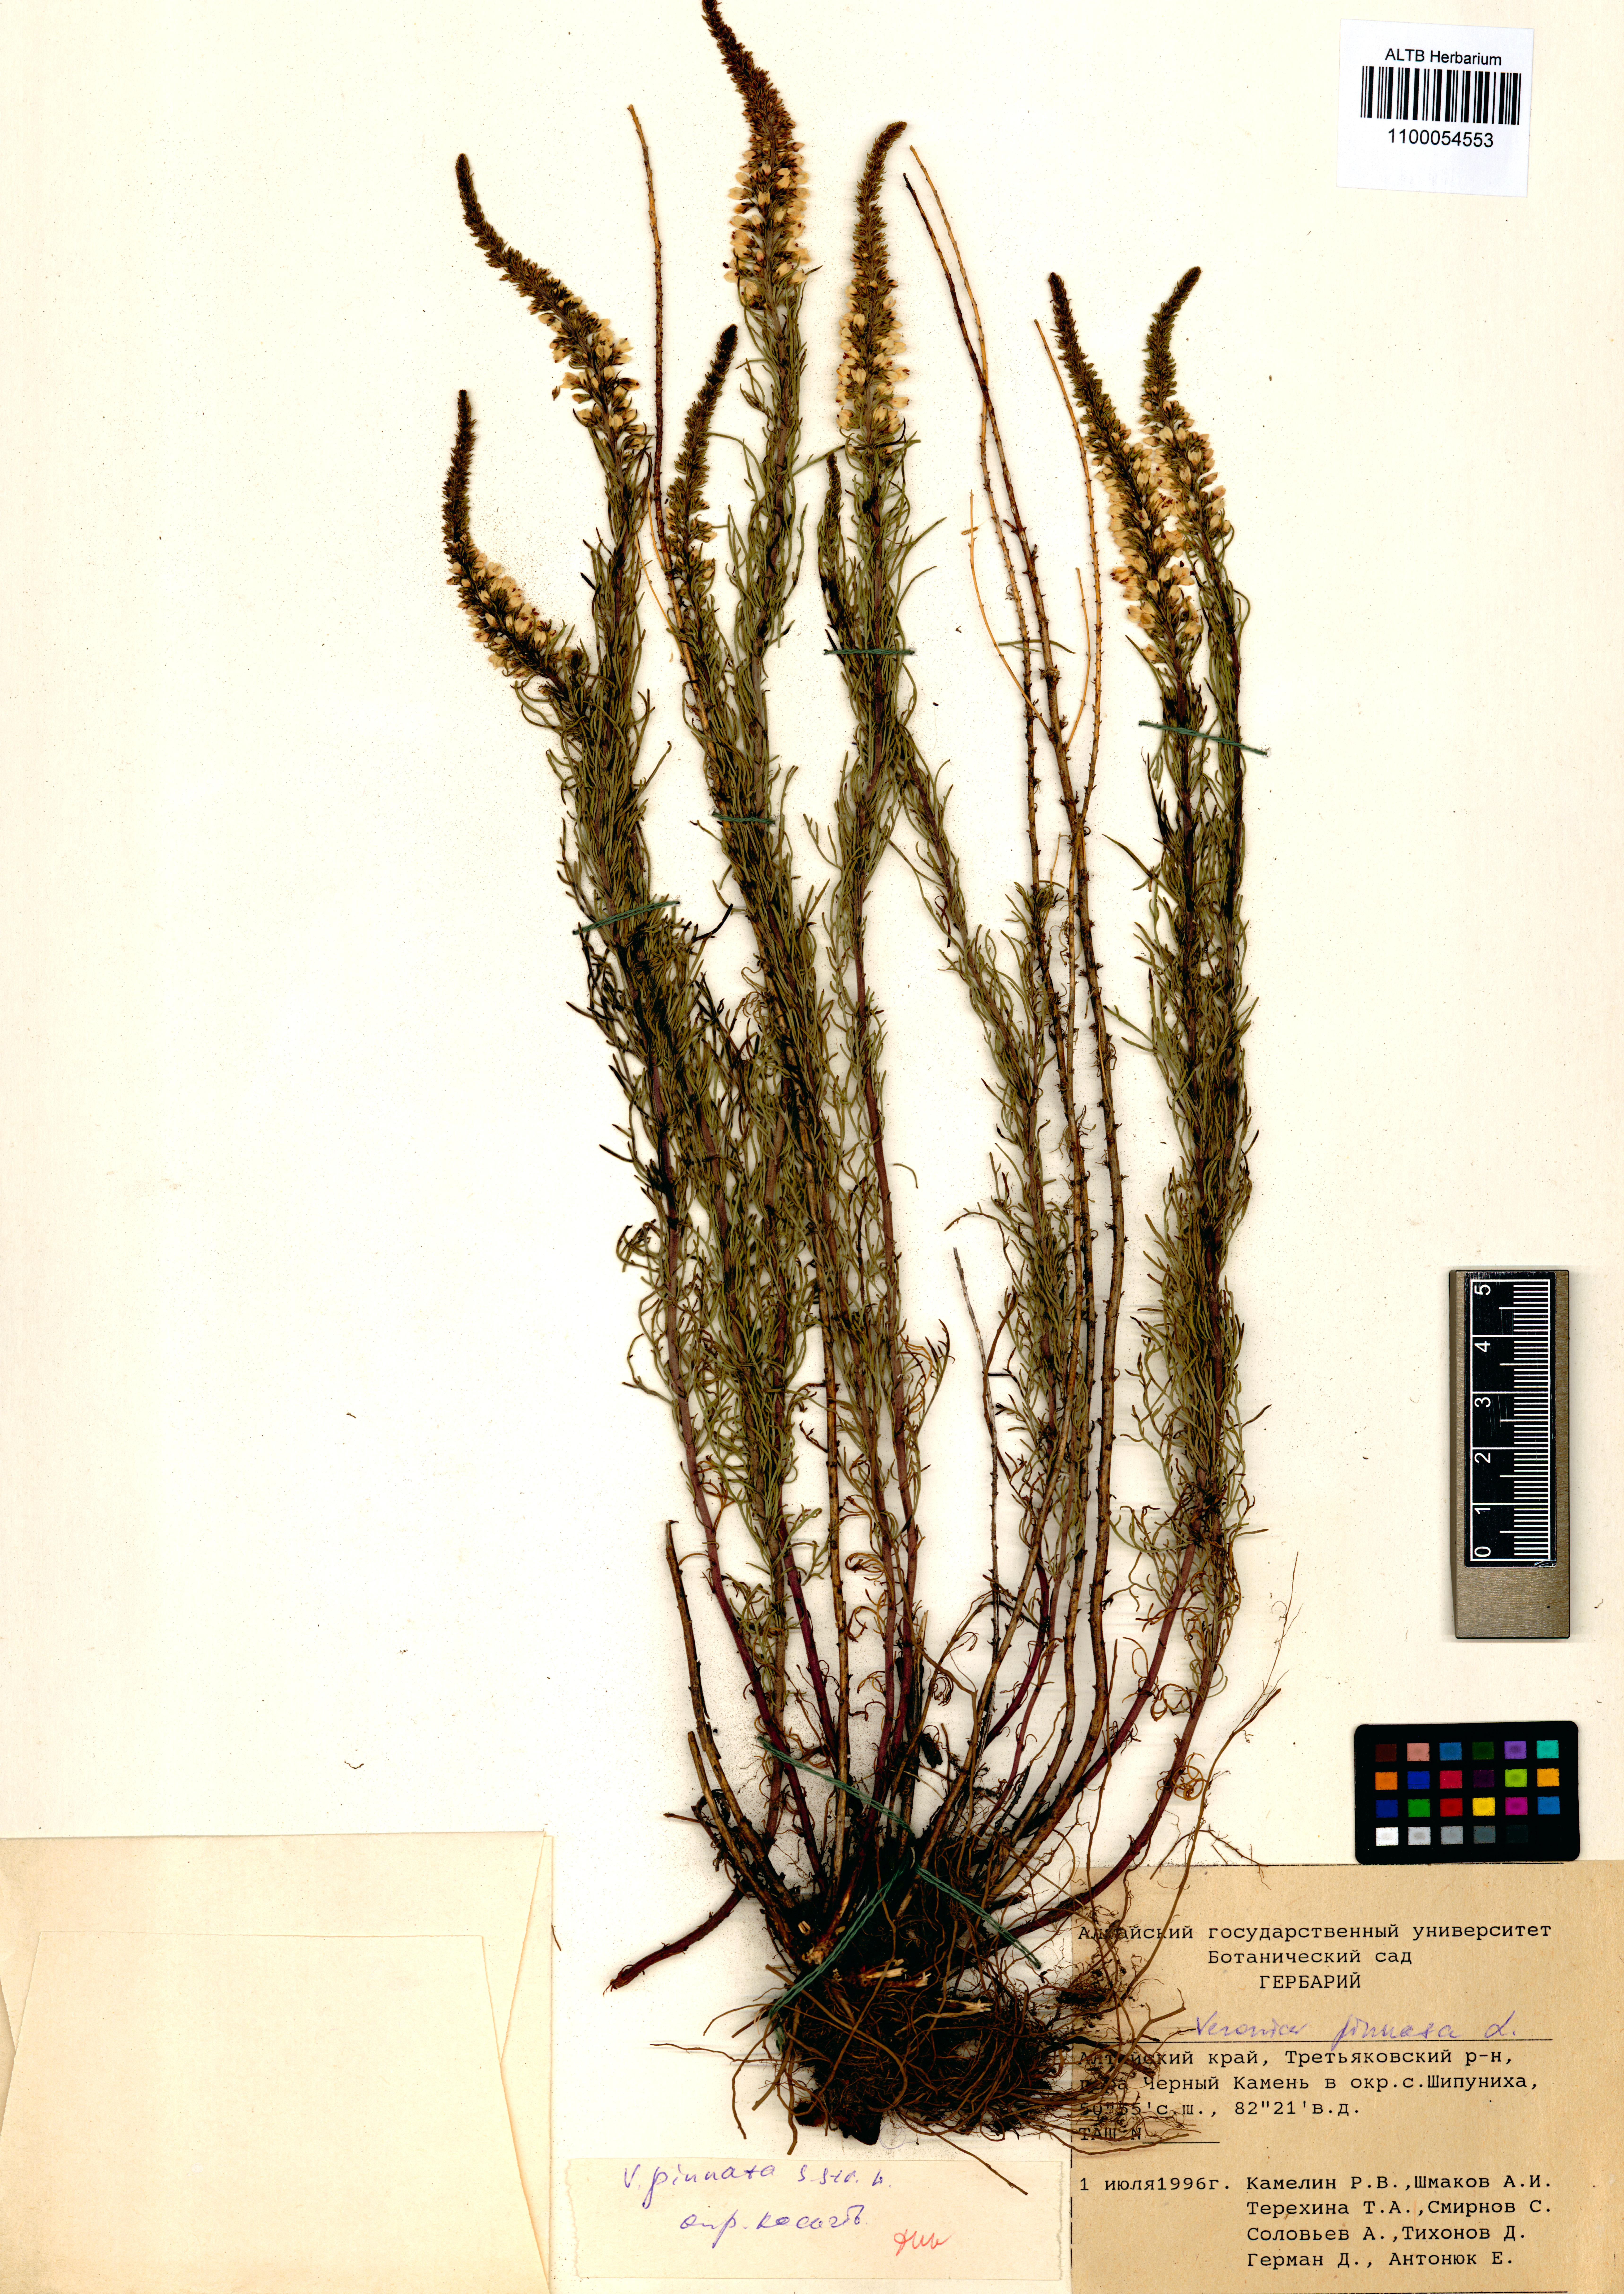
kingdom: Plantae
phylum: Tracheophyta
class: Magnoliopsida
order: Lamiales
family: Plantaginaceae
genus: Veronica
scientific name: Veronica pinnata
